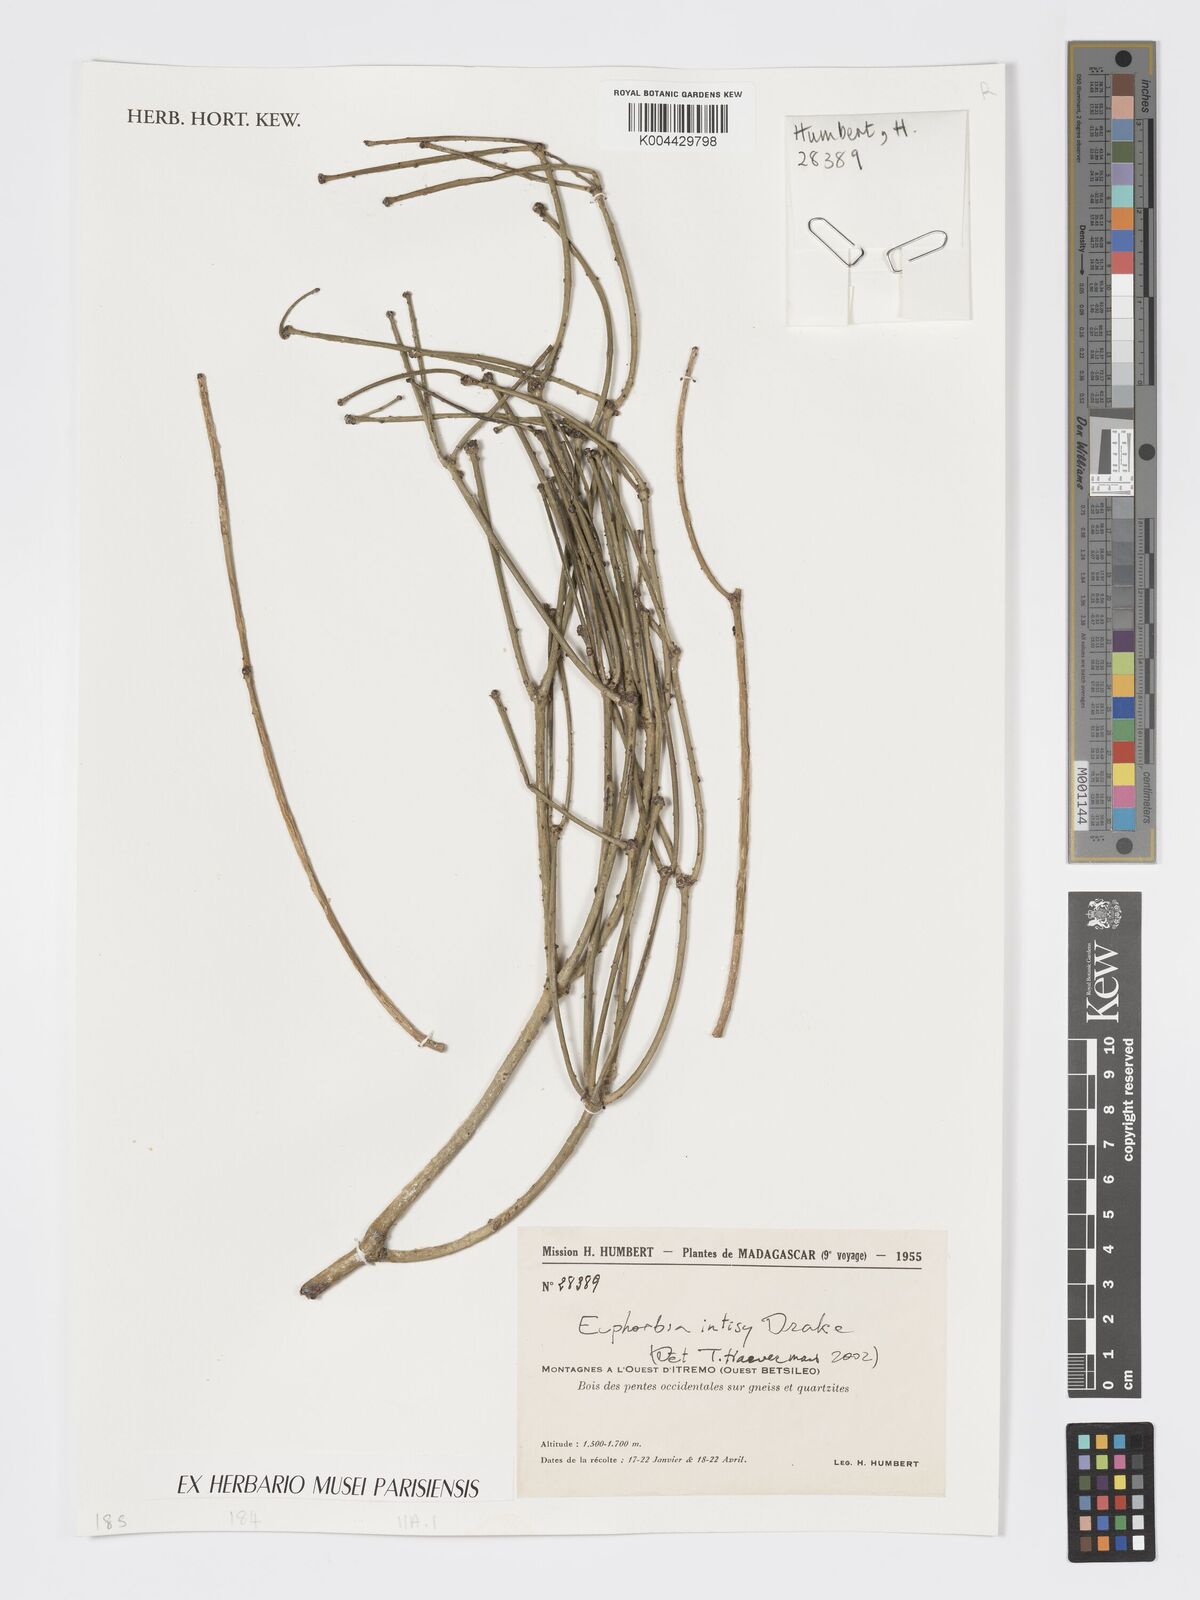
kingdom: Plantae
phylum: Tracheophyta
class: Magnoliopsida
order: Malpighiales
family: Euphorbiaceae
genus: Euphorbia
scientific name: Euphorbia intisy
